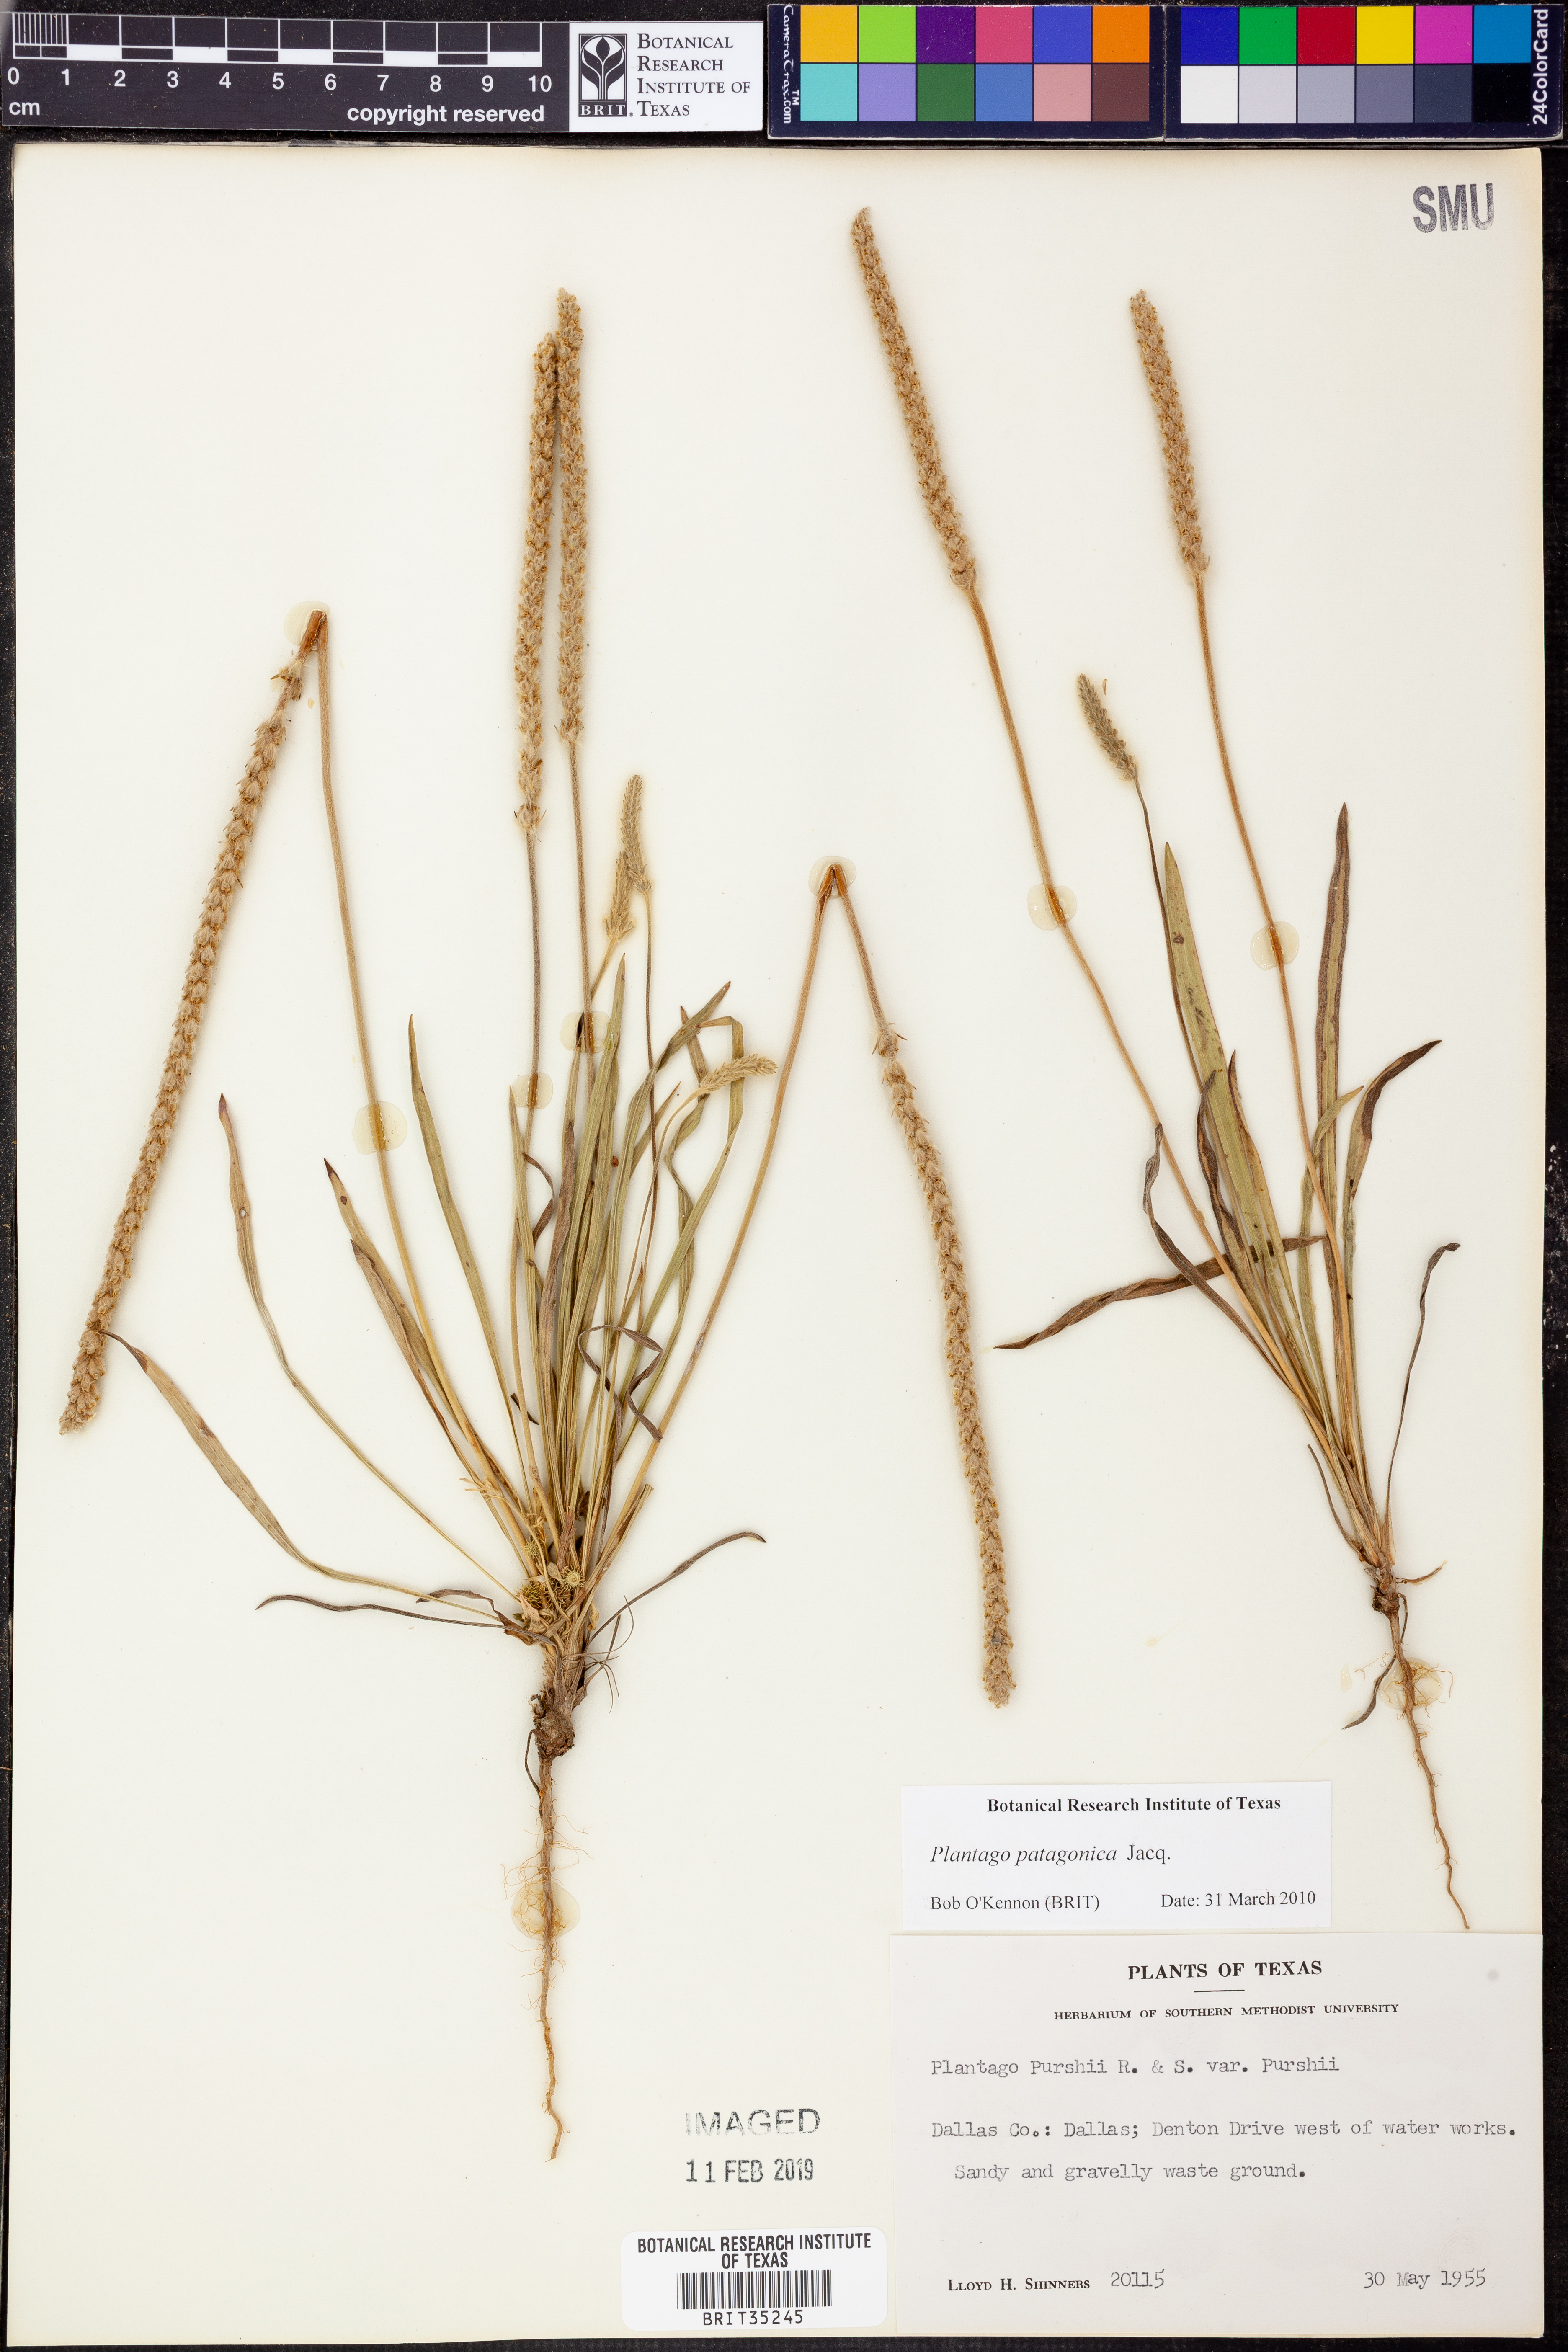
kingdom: Plantae
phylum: Tracheophyta
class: Magnoliopsida
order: Apiales
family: Apiaceae
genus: Ammoselinum
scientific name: Ammoselinum butleri
